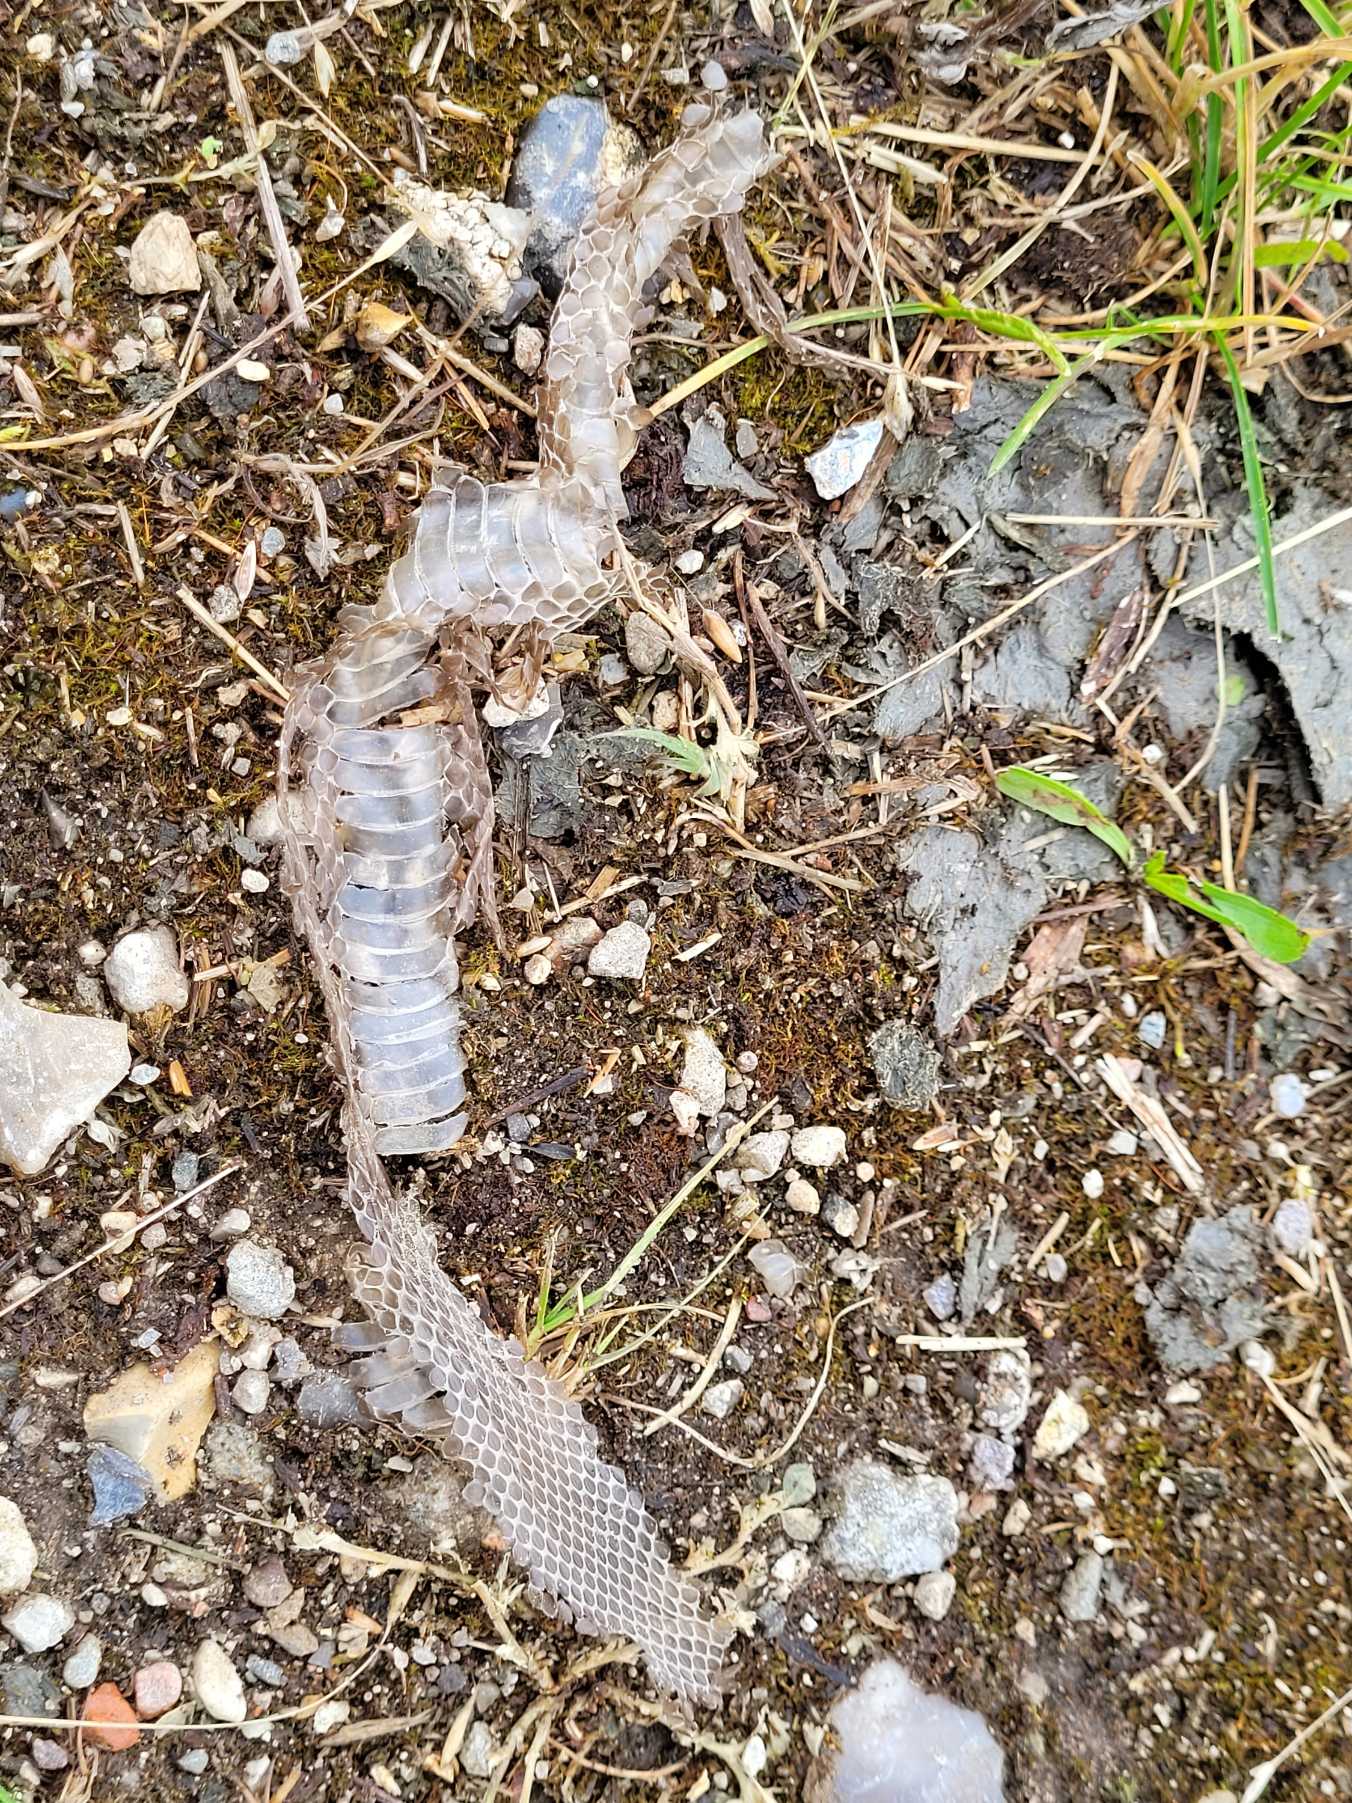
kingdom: Animalia
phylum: Chordata
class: Squamata
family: Colubridae
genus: Natrix
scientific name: Natrix natrix
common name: Snog
